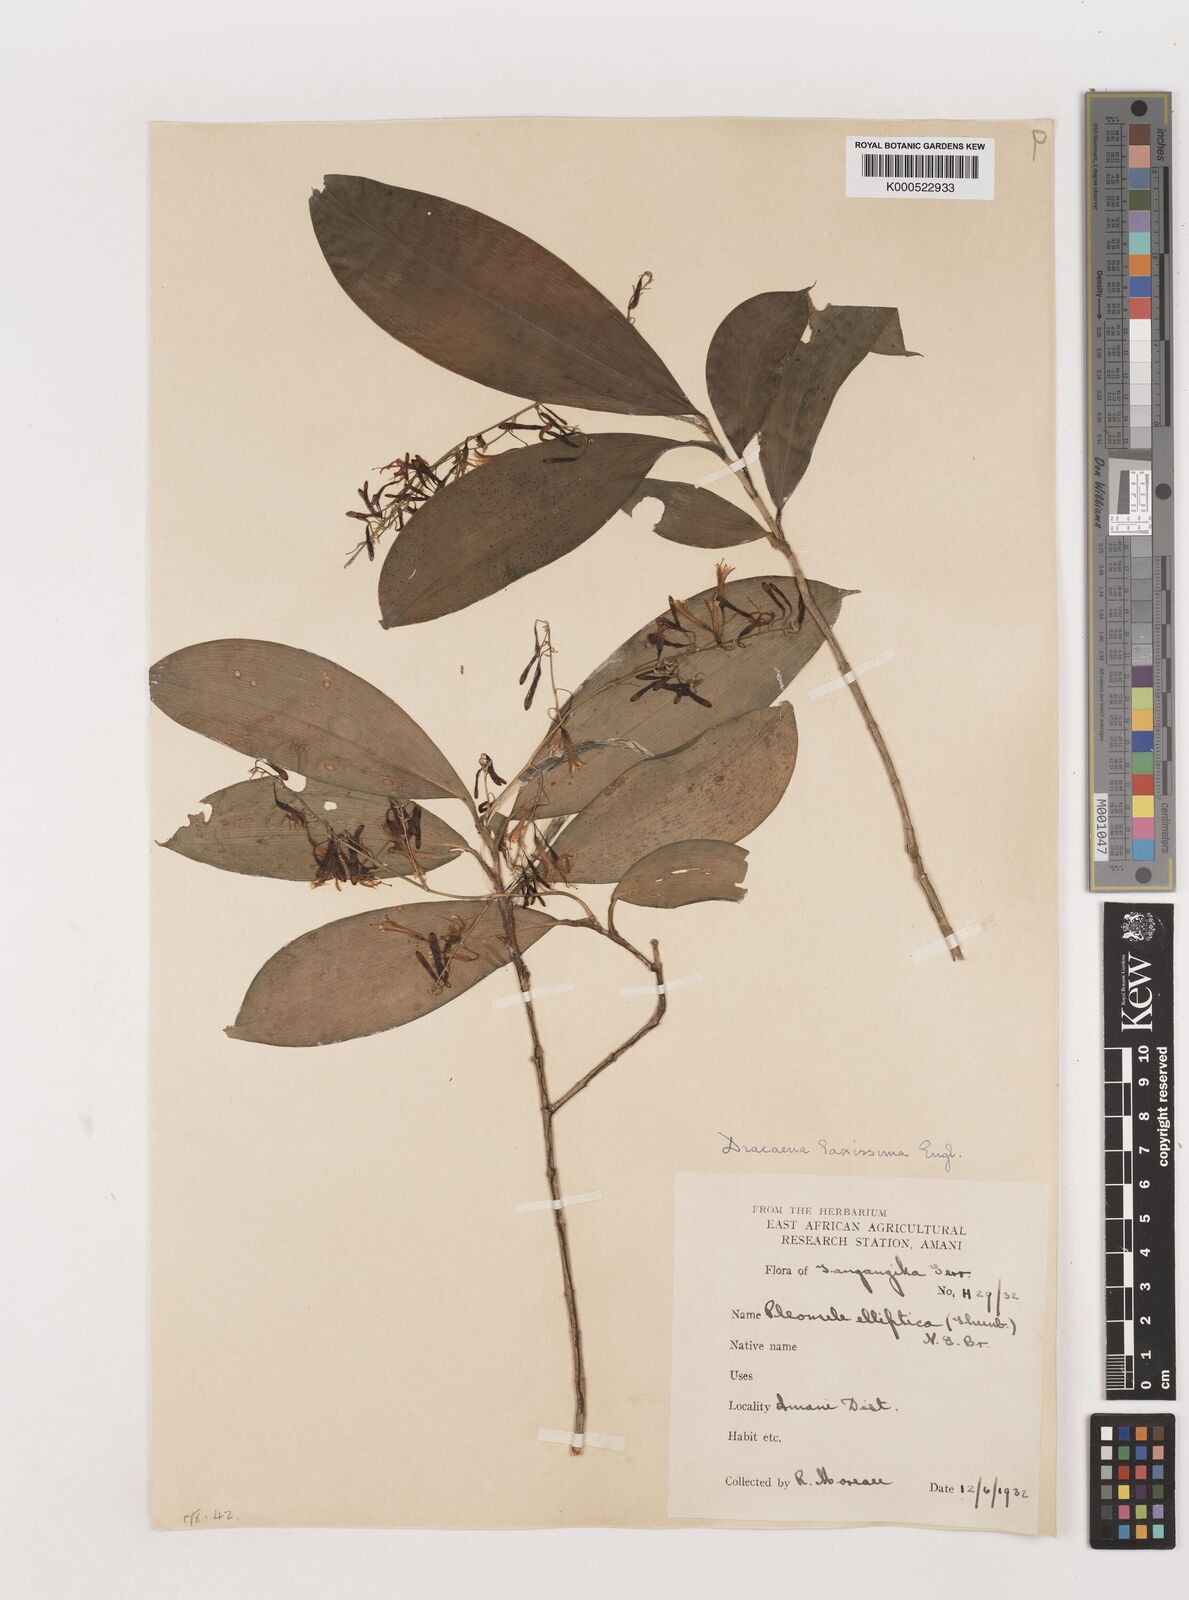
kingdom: Plantae
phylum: Tracheophyta
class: Liliopsida
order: Asparagales
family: Asparagaceae
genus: Dracaena
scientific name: Dracaena laxissima
